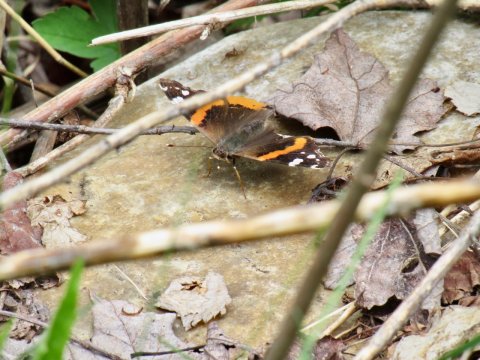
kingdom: Animalia
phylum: Arthropoda
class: Insecta
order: Lepidoptera
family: Nymphalidae
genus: Vanessa
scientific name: Vanessa atalanta
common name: Red Admiral
